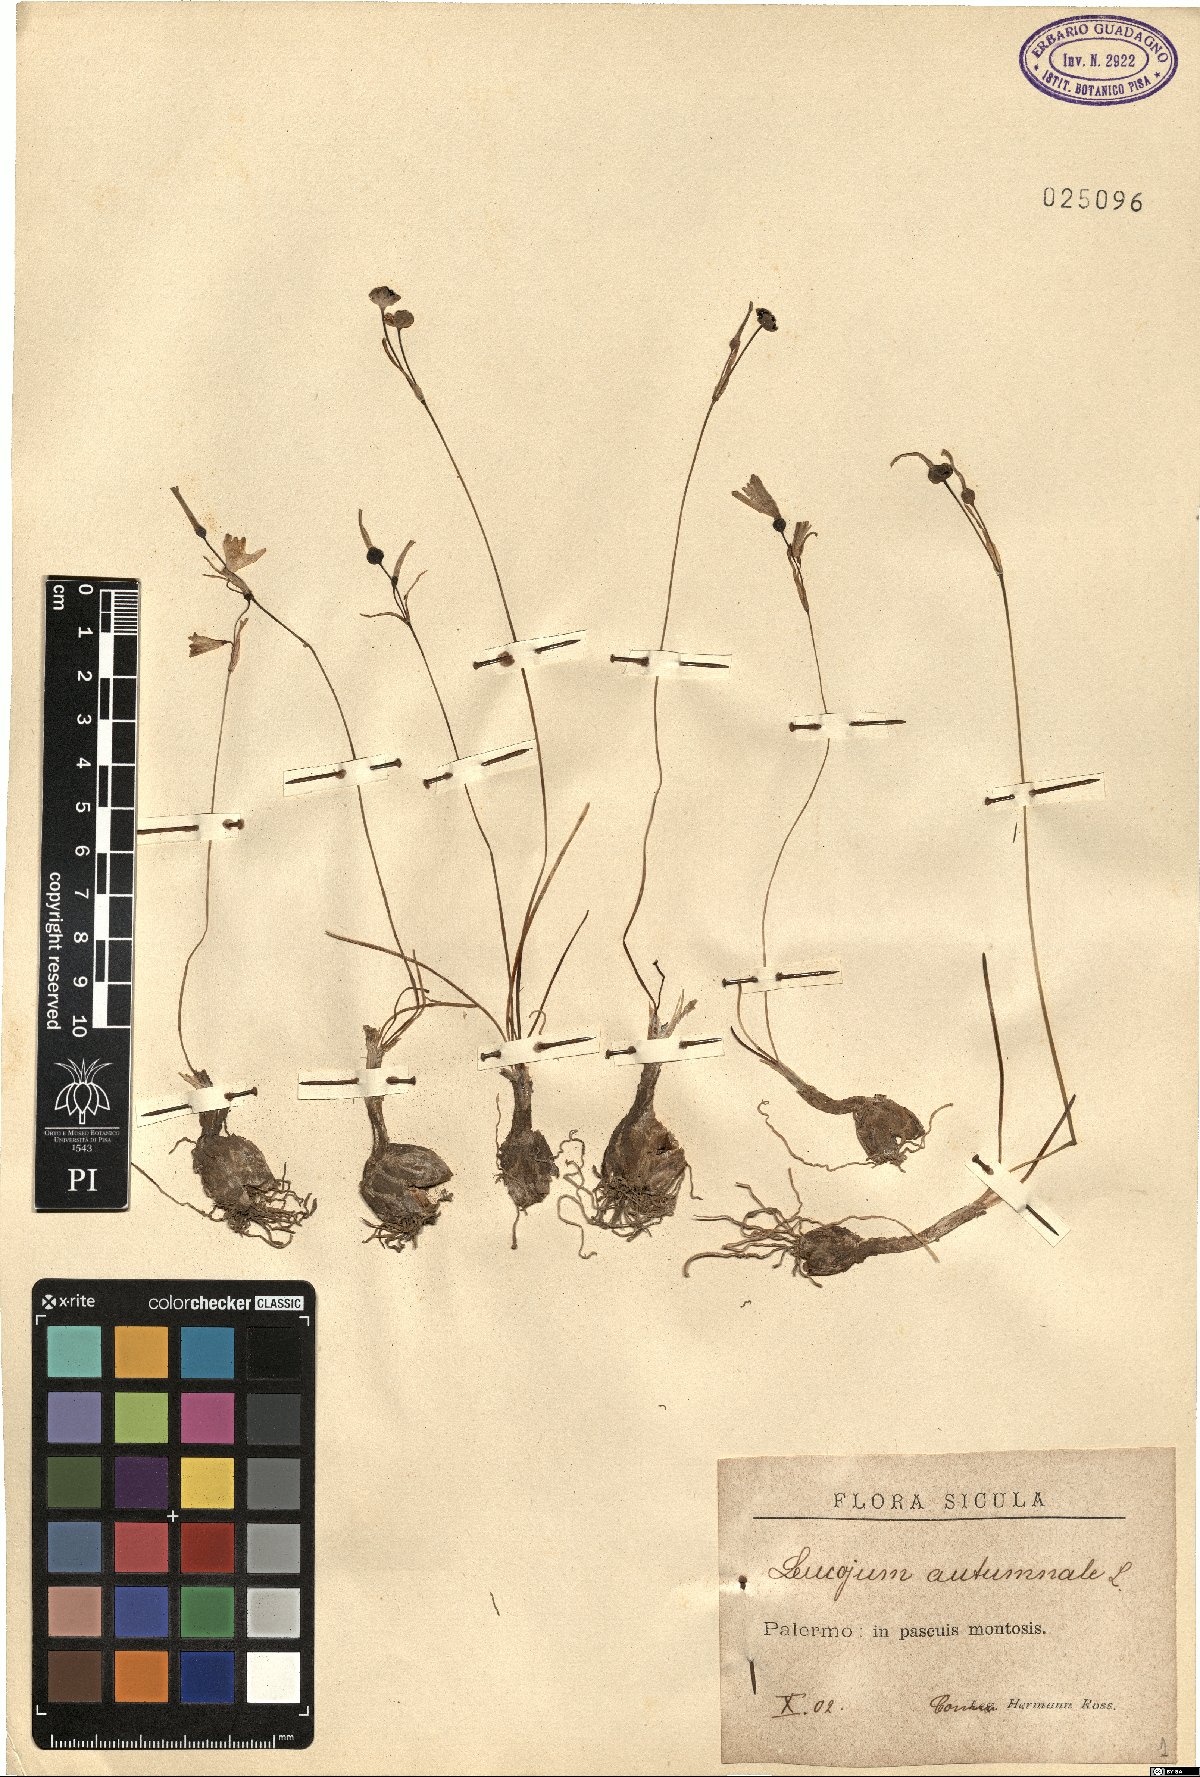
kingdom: Plantae
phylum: Tracheophyta
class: Liliopsida
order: Asparagales
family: Amaryllidaceae
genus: Acis
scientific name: Acis autumnalis
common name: Autumn snowflake
